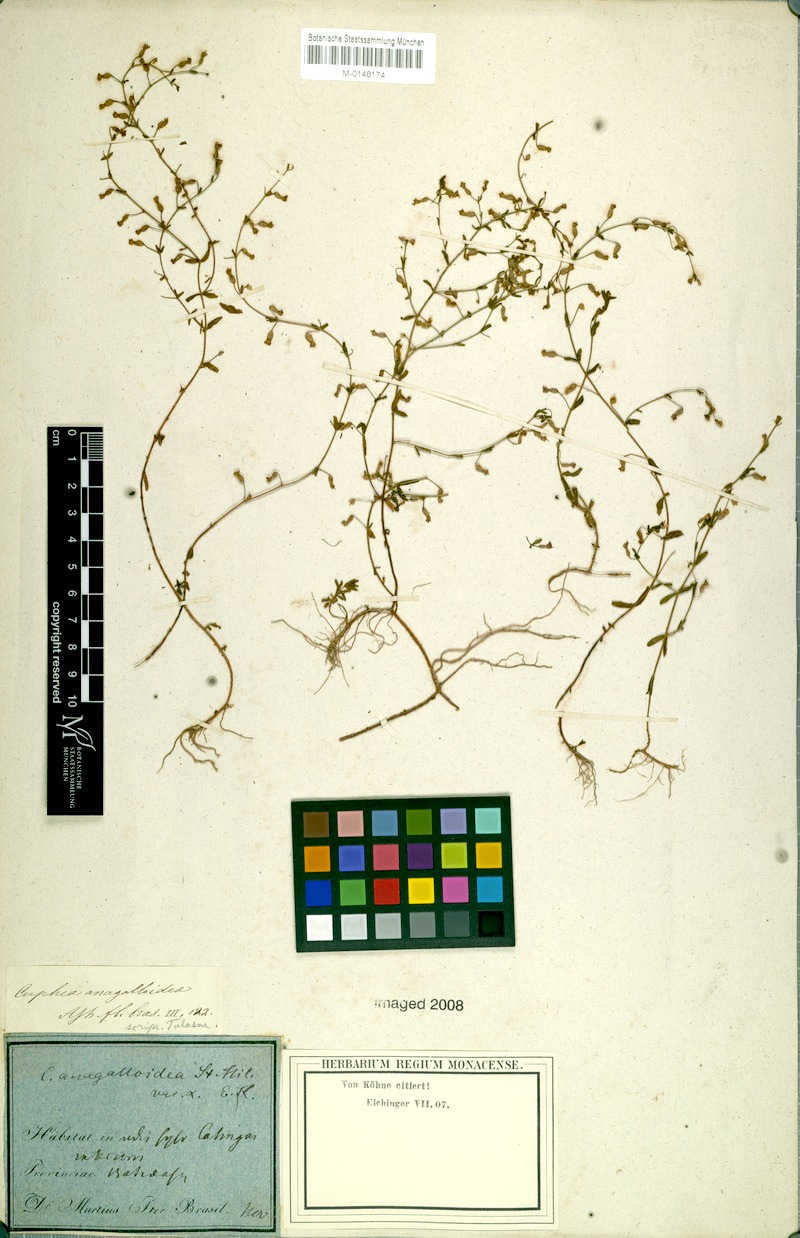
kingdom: Plantae
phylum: Tracheophyta
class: Magnoliopsida
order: Myrtales
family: Lythraceae
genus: Cuphea
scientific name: Cuphea anagalloidea
